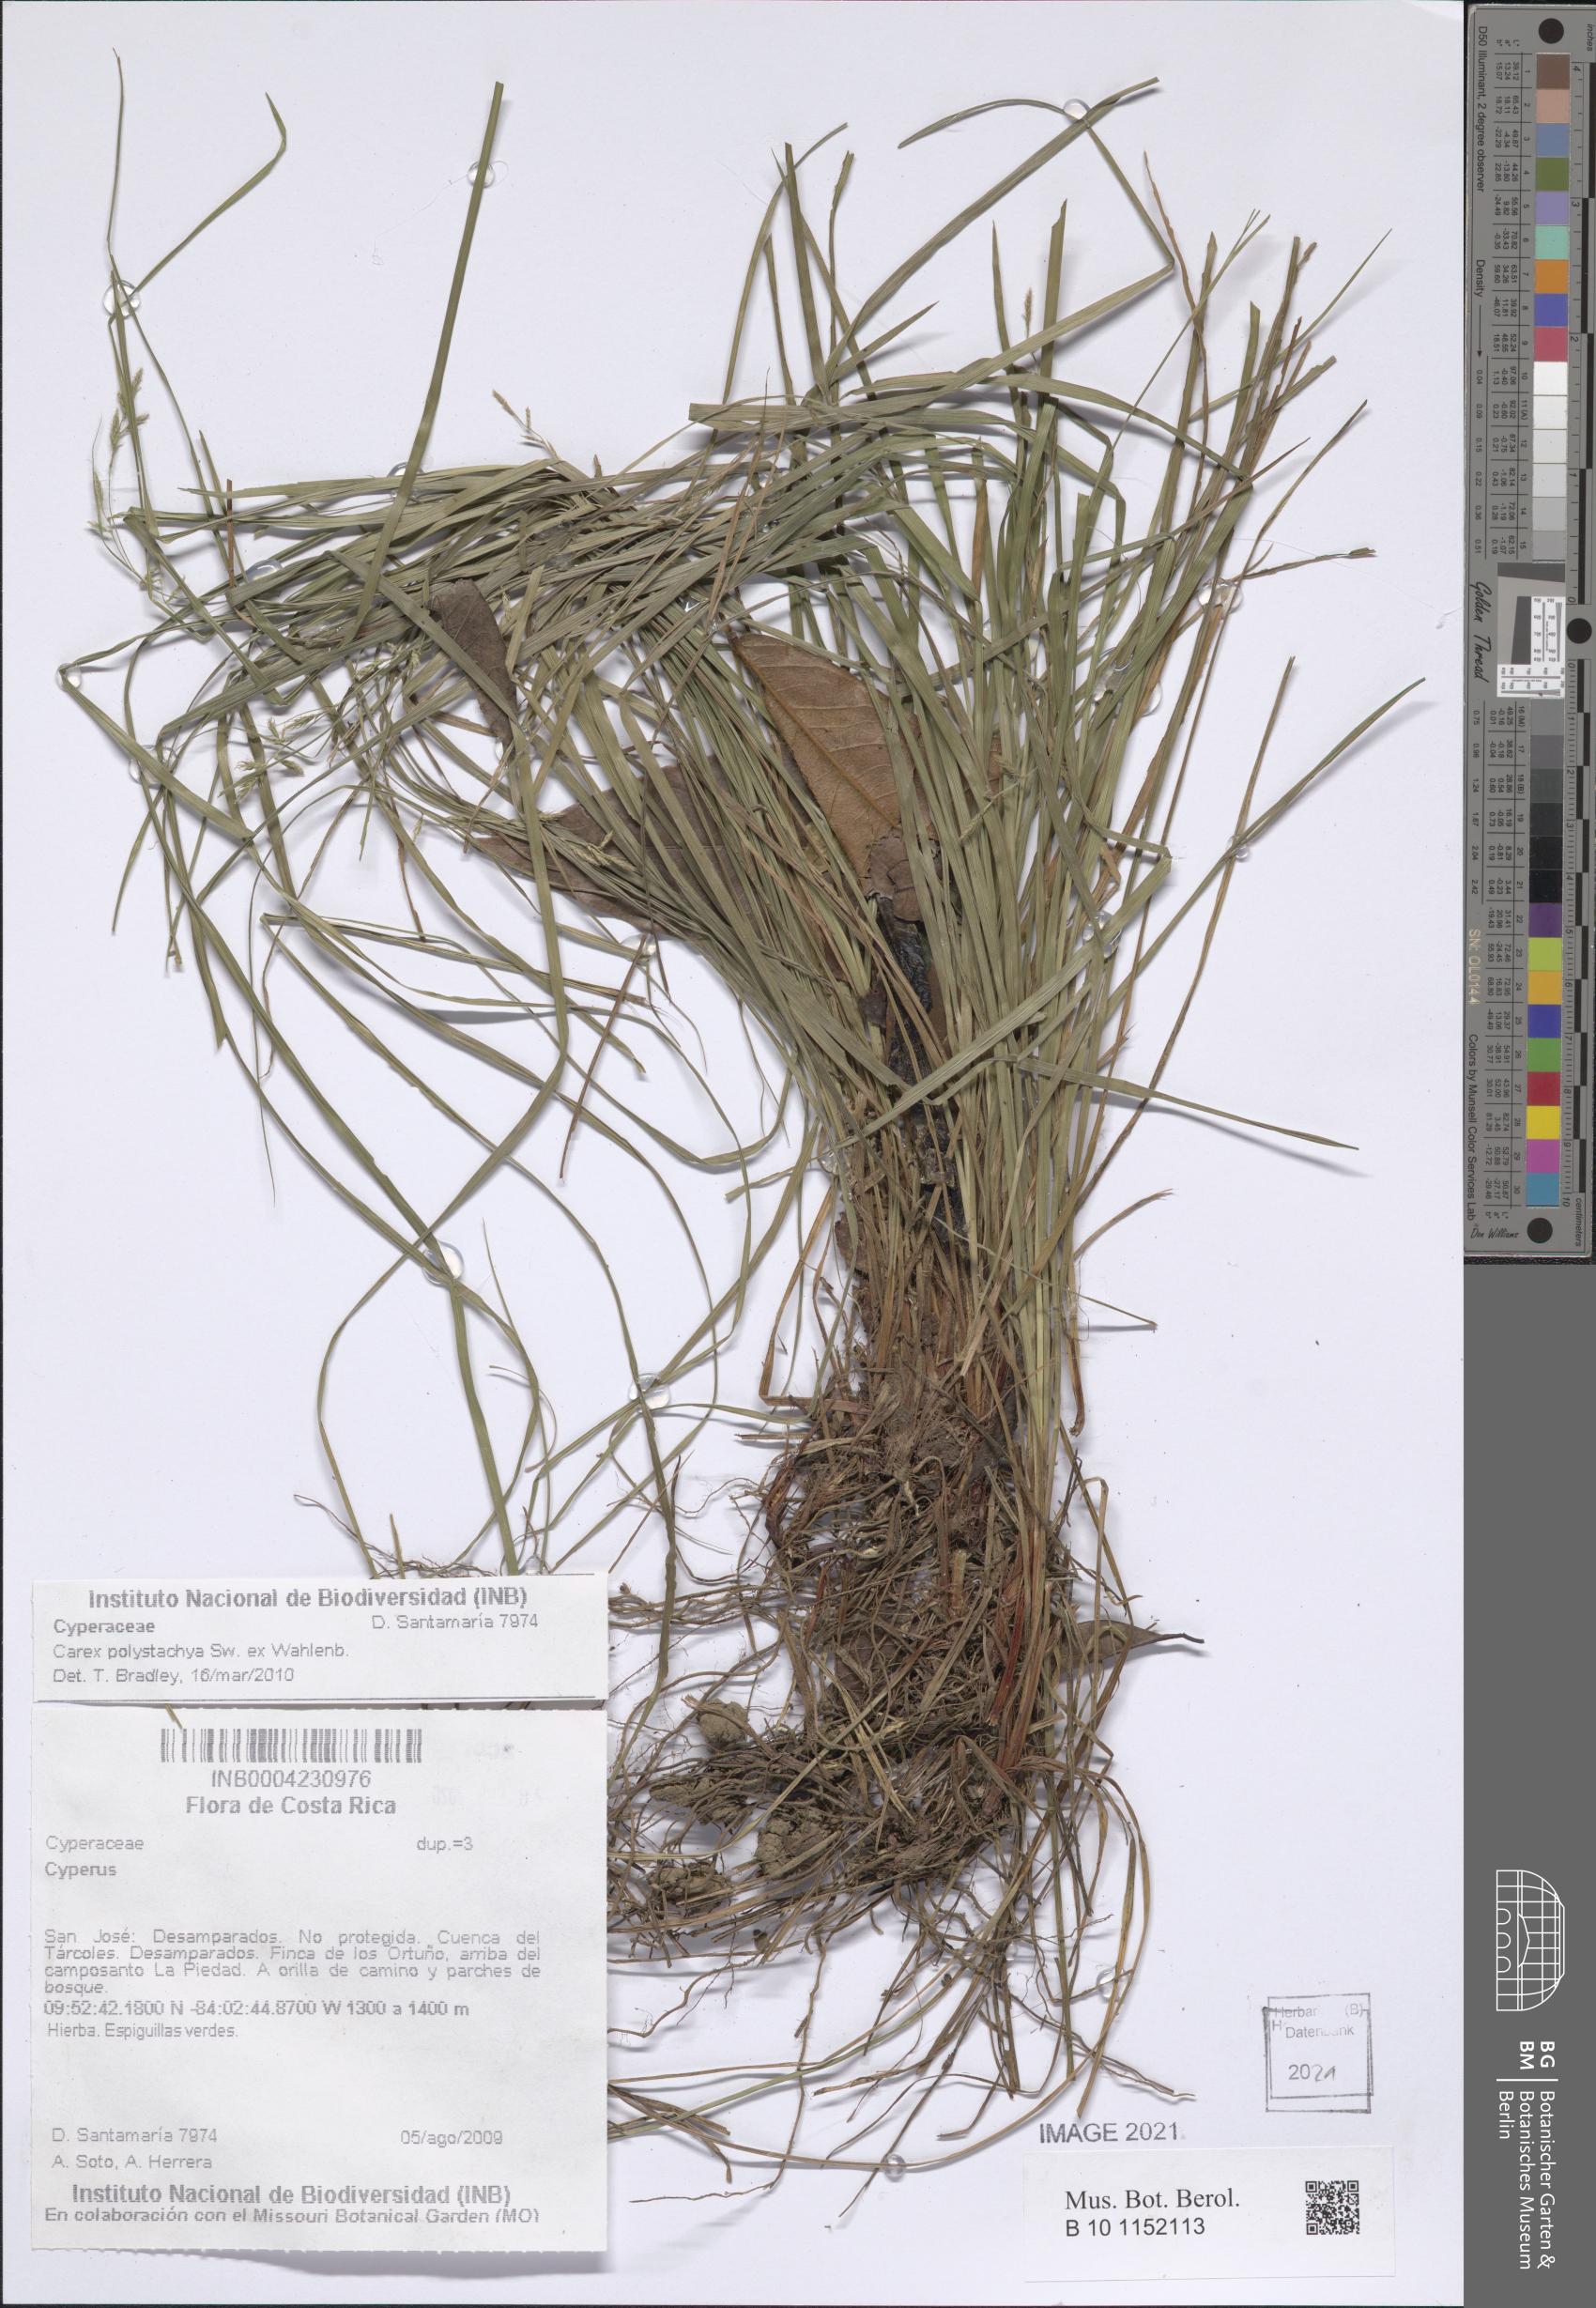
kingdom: Plantae
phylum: Tracheophyta
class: Liliopsida
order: Poales
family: Cyperaceae
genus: Carex
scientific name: Carex polystachya
